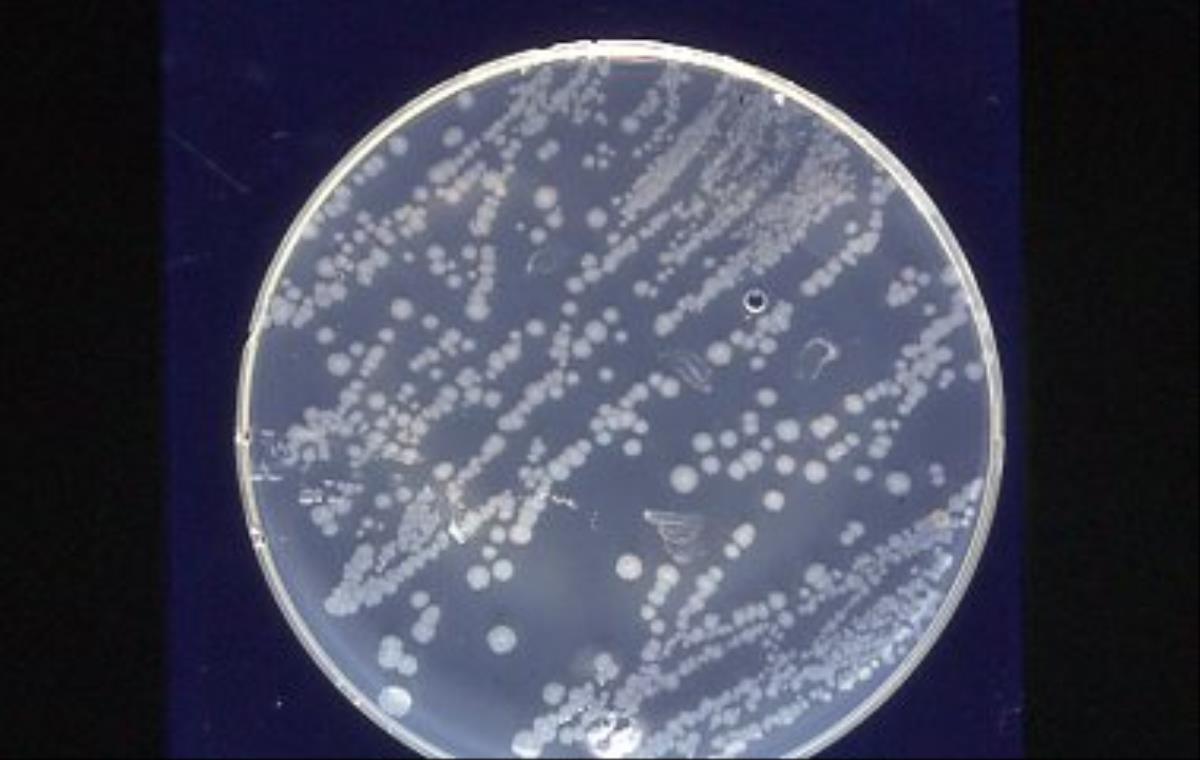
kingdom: Bacteria
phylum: Proteobacteria
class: Gammaproteobacteria
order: Enterobacterales
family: Enterobacteriaceae
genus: Dickeya
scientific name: Dickeya chrysanthemi
